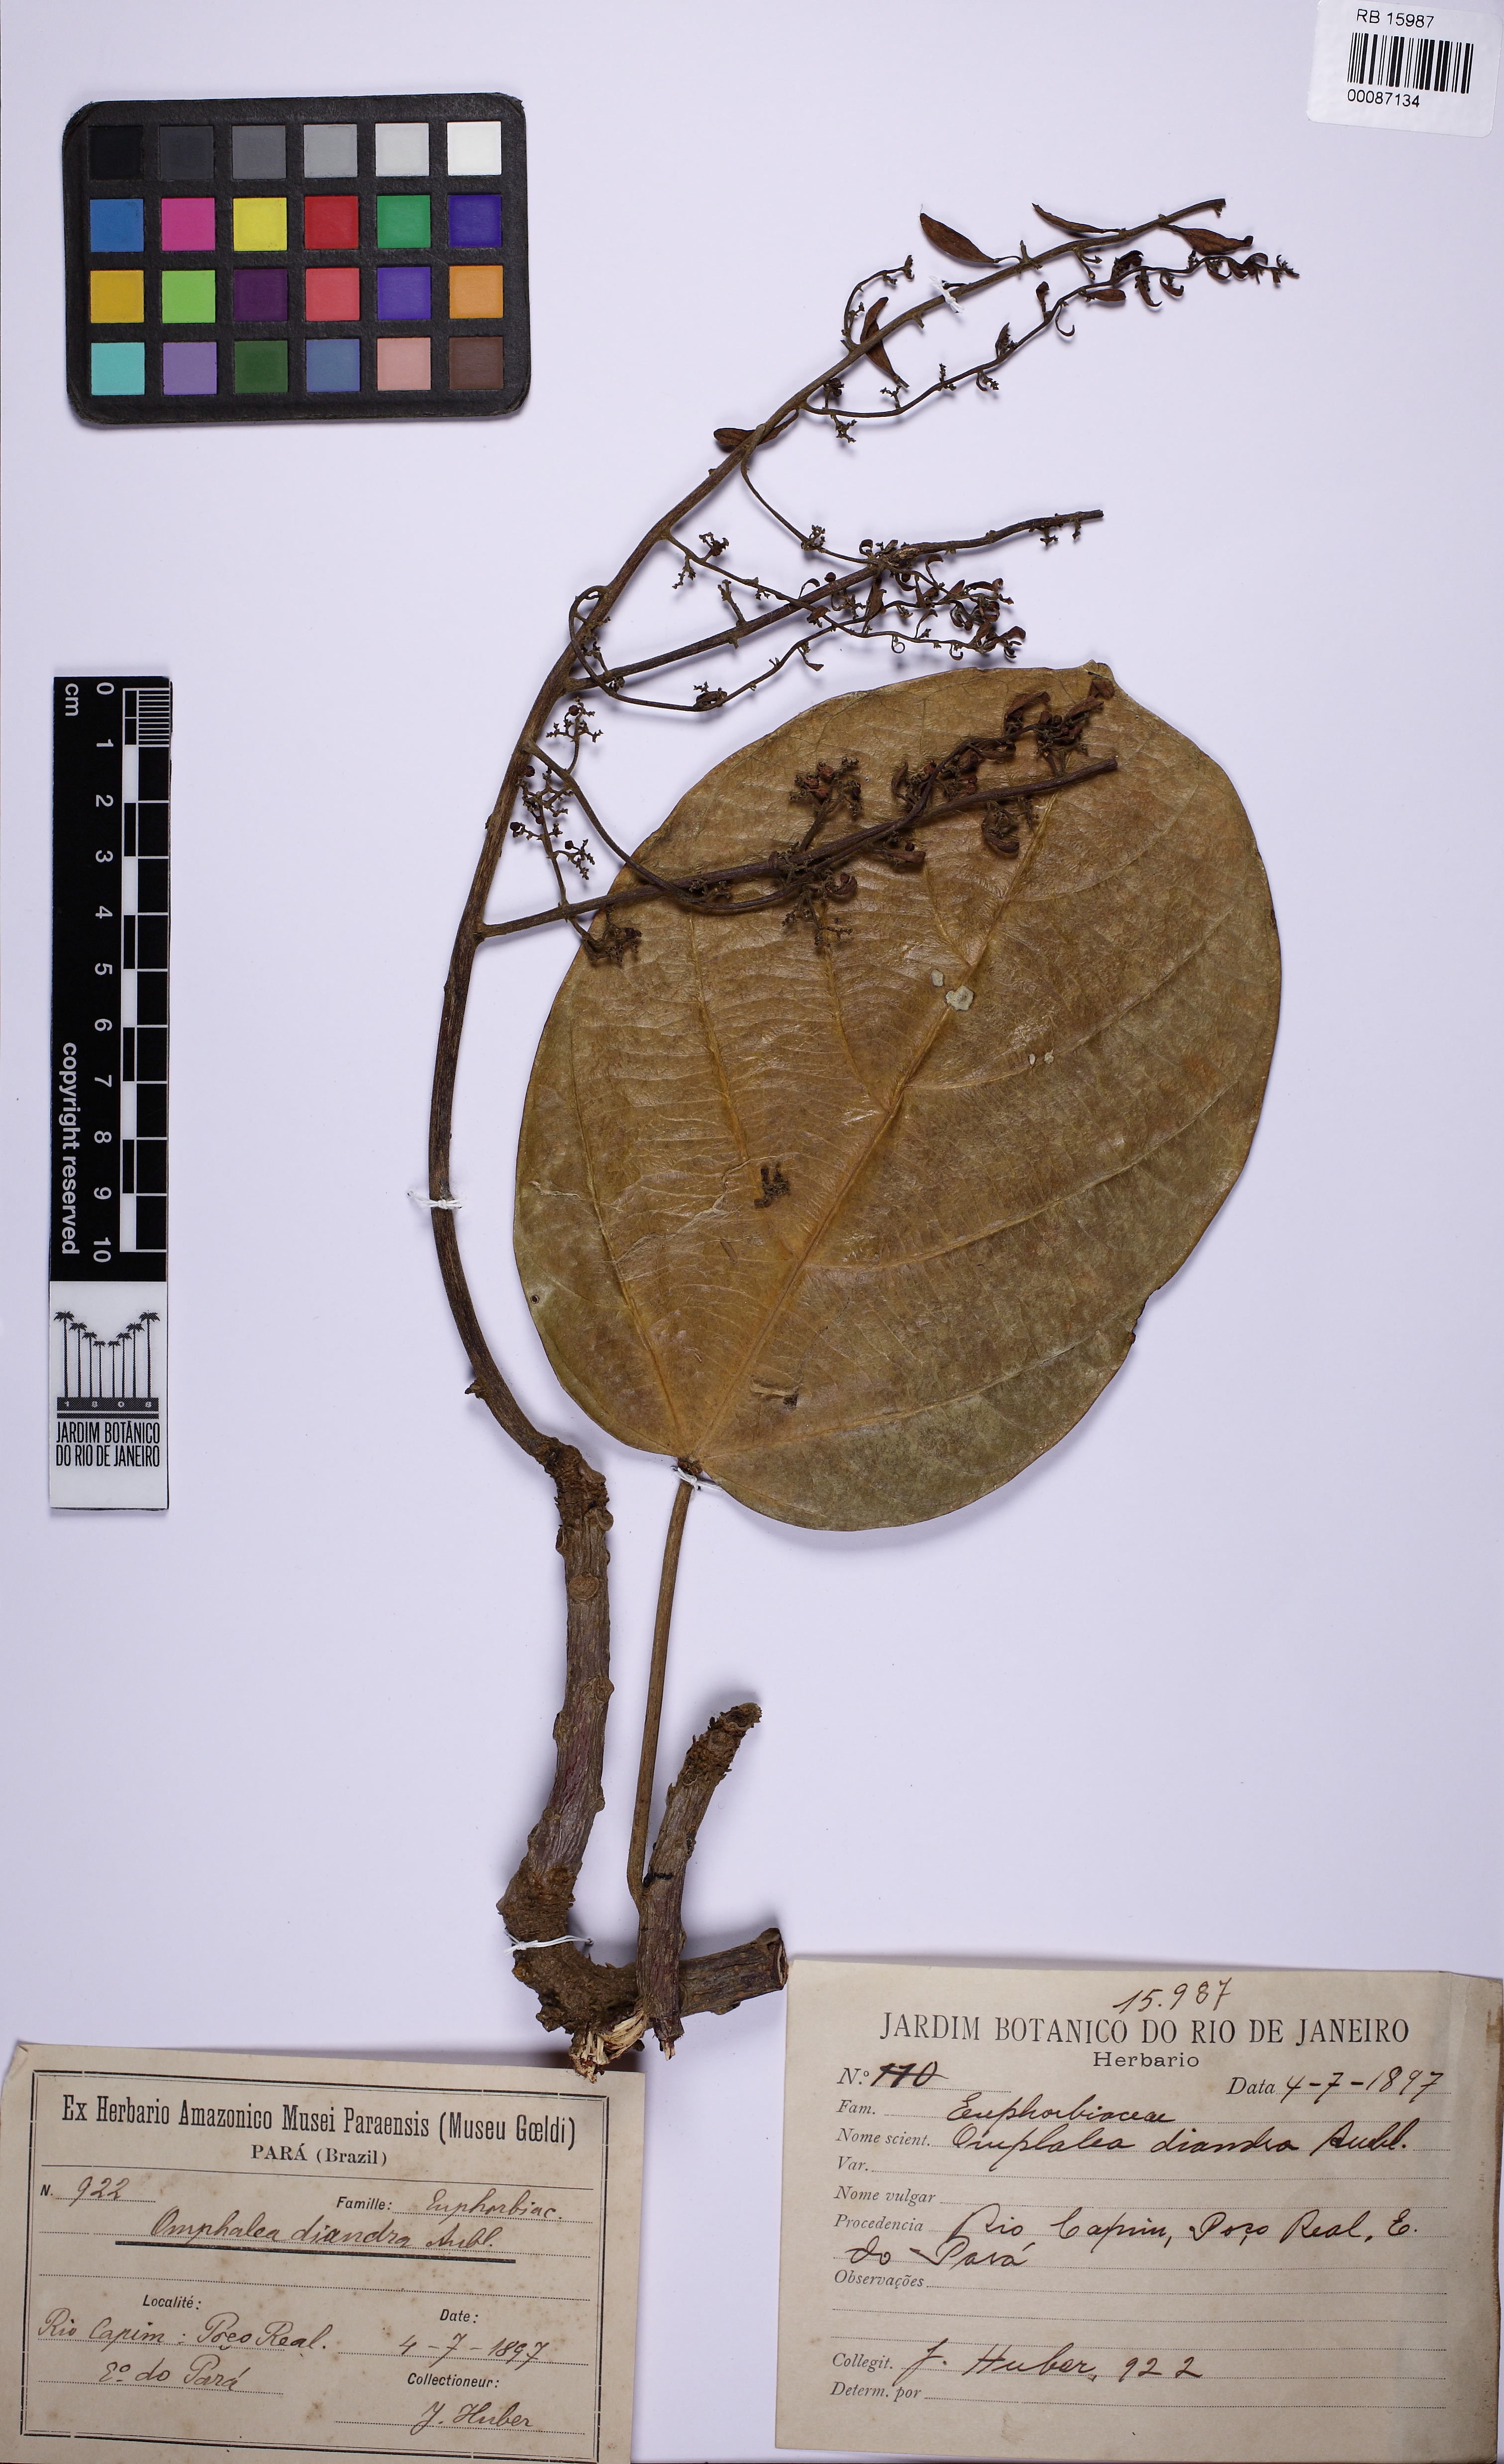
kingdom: Plantae
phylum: Tracheophyta
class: Magnoliopsida
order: Malpighiales
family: Euphorbiaceae
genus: Omphalea
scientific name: Omphalea diandra
